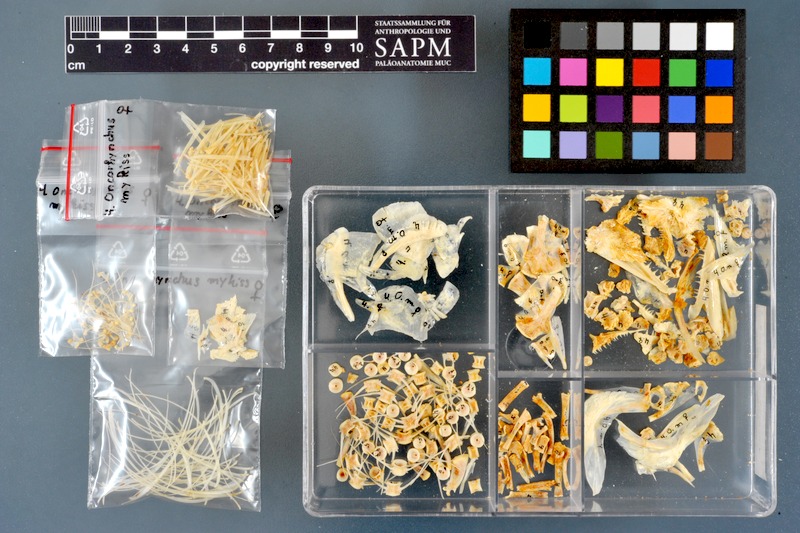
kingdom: Animalia
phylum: Chordata
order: Salmoniformes
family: Salmonidae
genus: Oncorhynchus
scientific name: Oncorhynchus mykiss
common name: Rainbow trout
